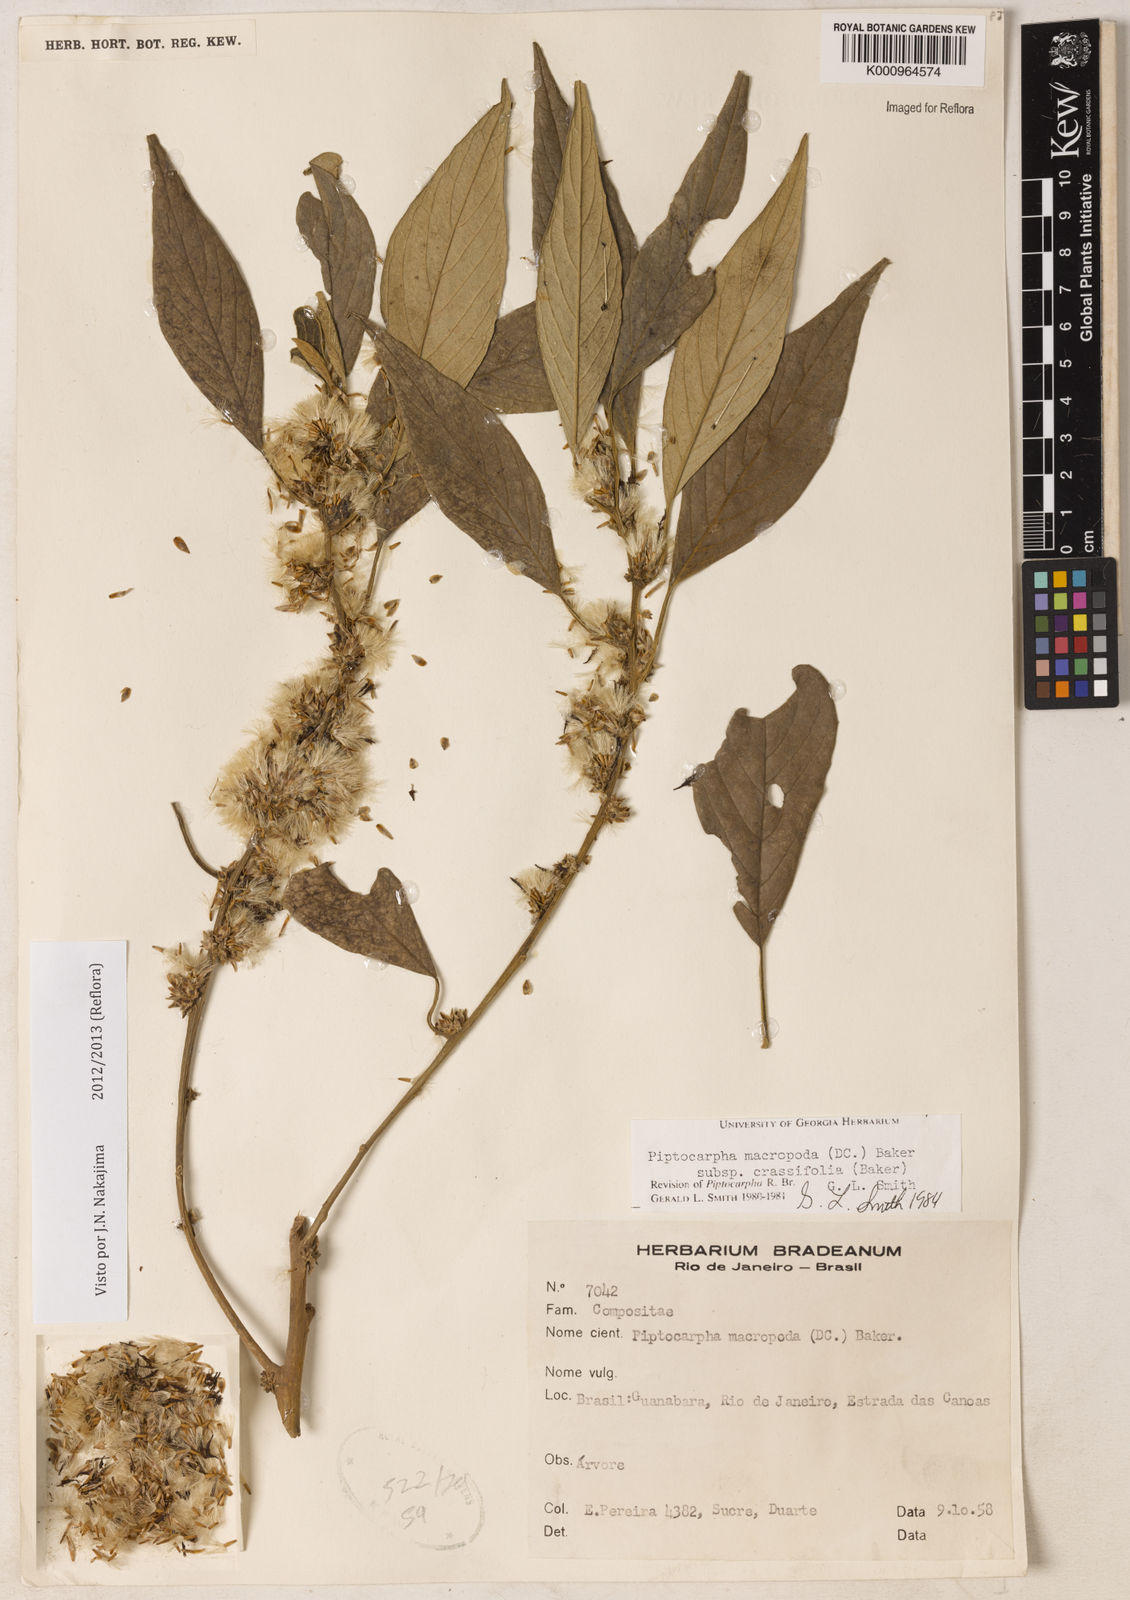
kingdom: Plantae
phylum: Tracheophyta
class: Magnoliopsida
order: Asterales
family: Asteraceae
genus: Piptocarpha
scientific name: Piptocarpha macropoda
